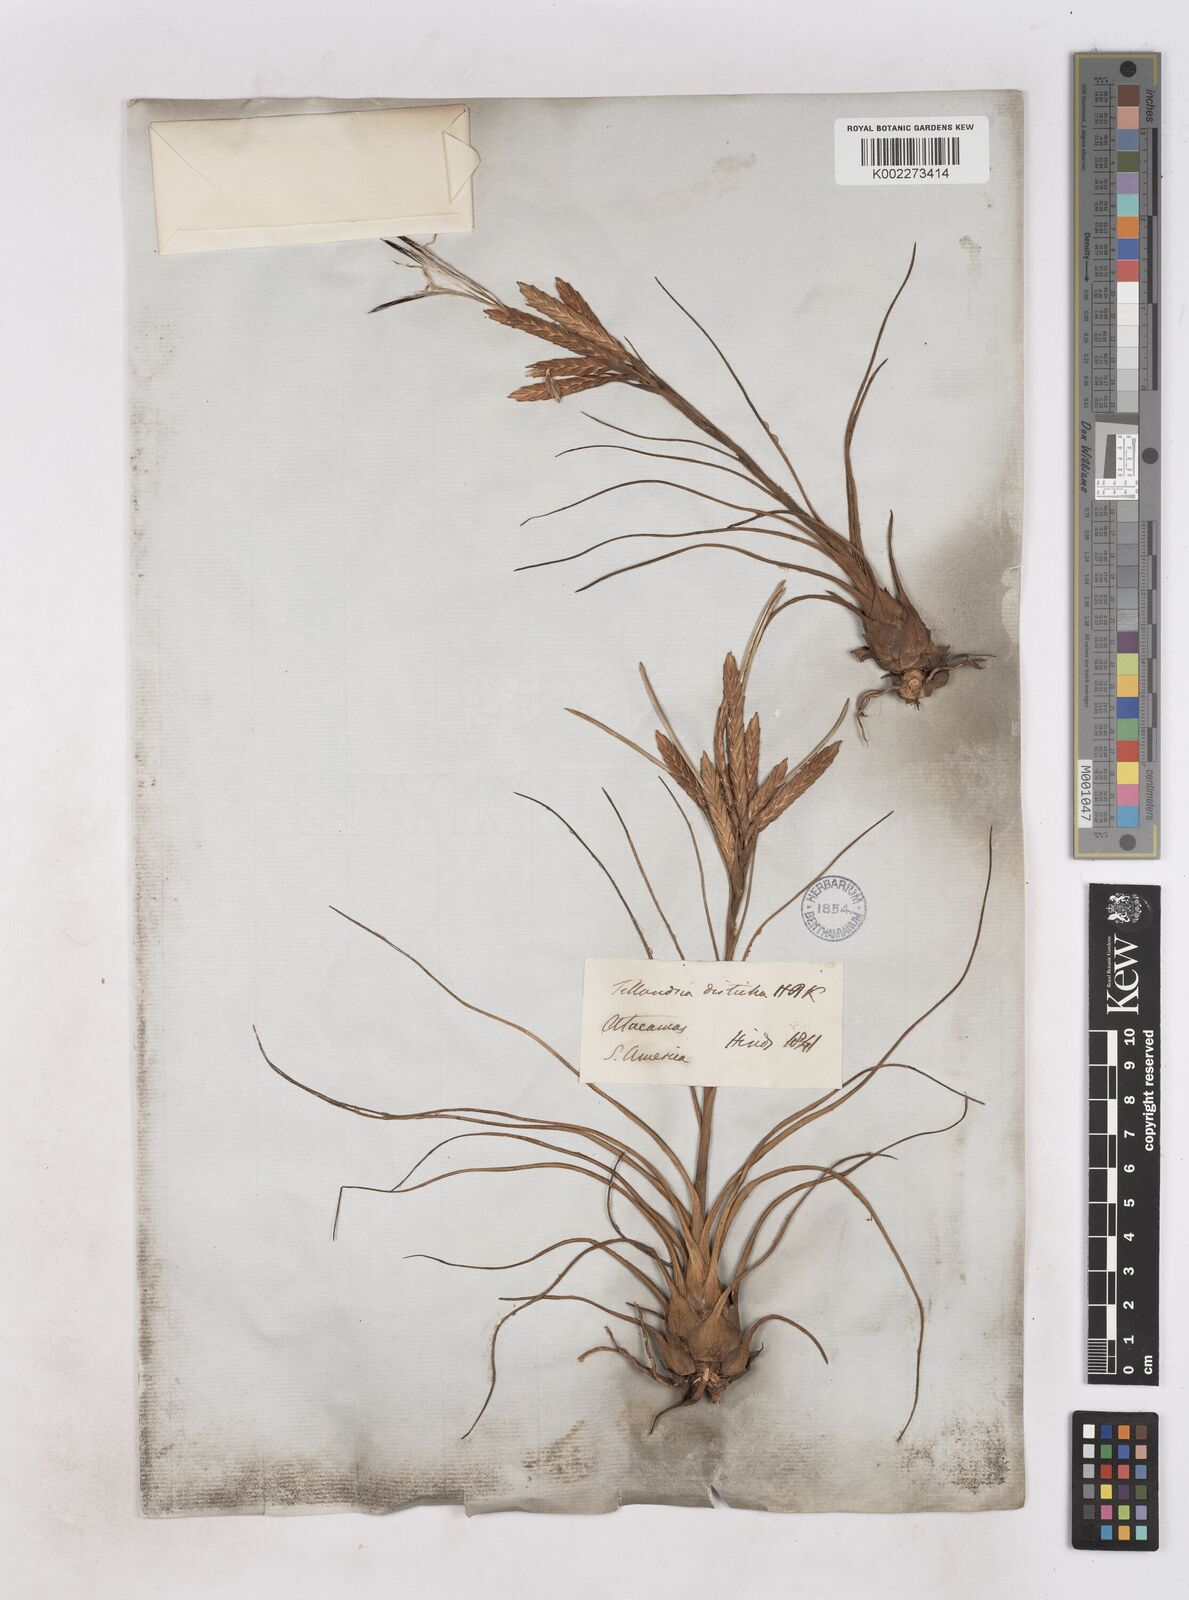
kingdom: Plantae
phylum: Tracheophyta
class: Liliopsida
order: Poales
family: Bromeliaceae
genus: Tillandsia
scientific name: Tillandsia
